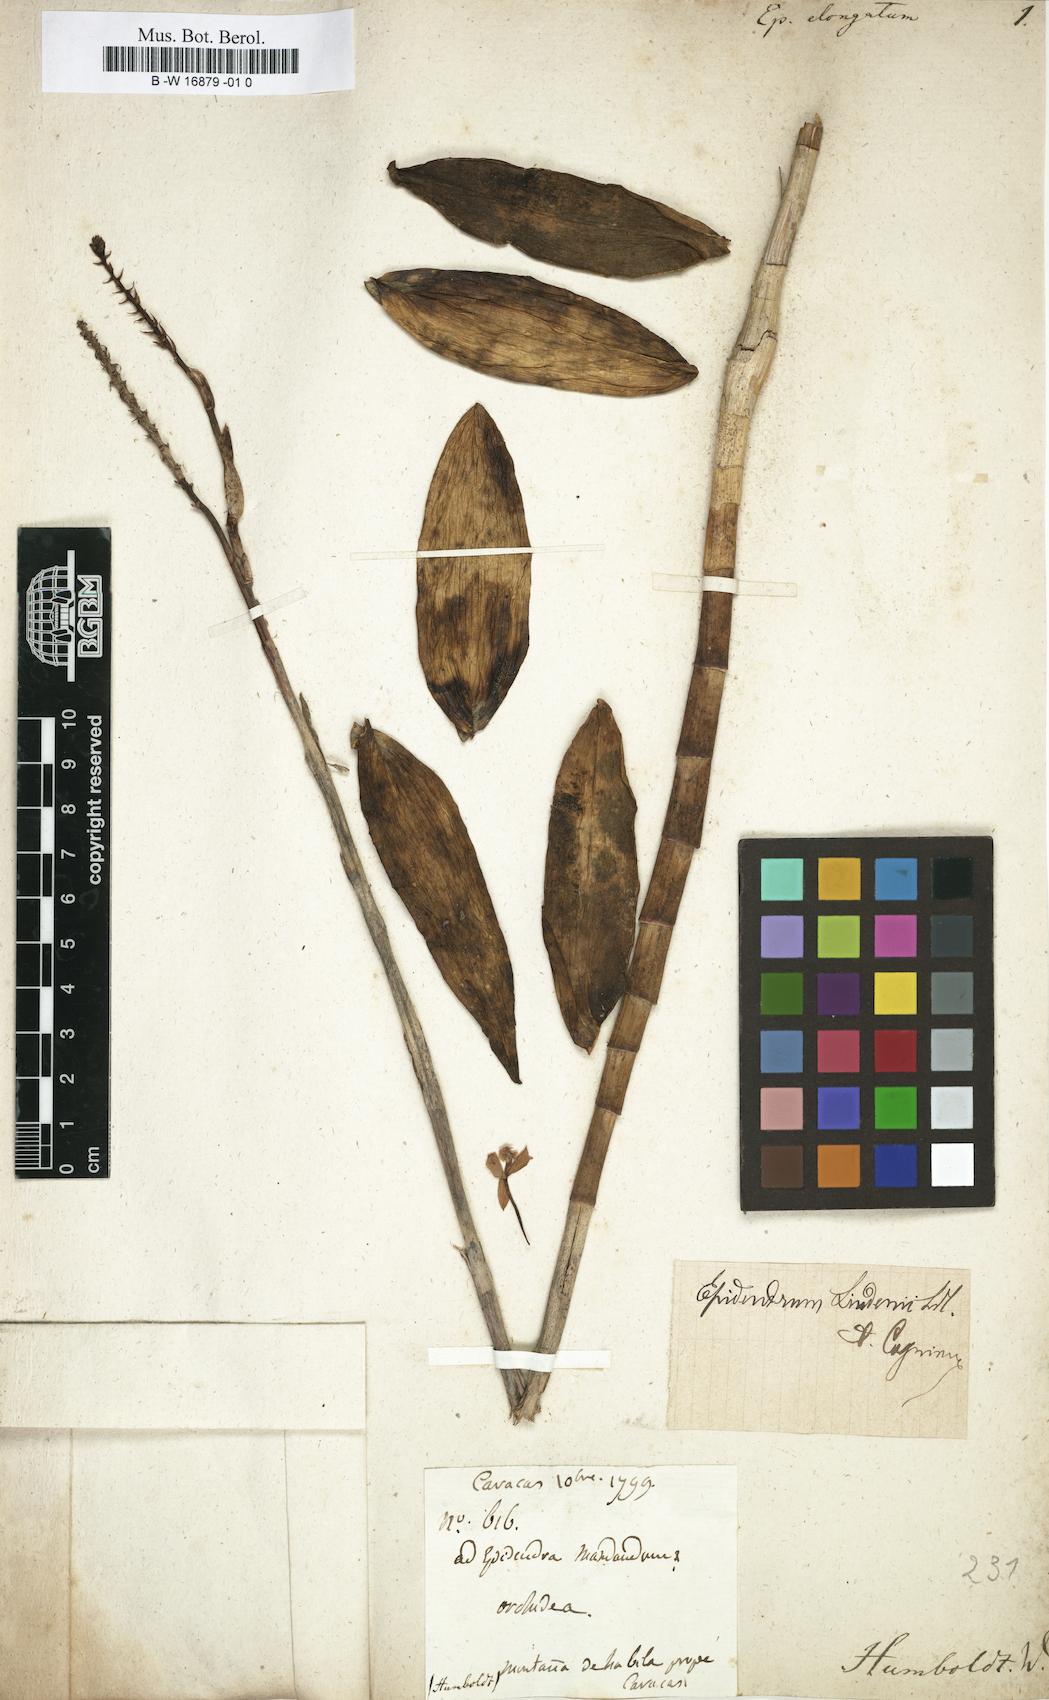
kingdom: Plantae
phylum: Tracheophyta
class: Liliopsida
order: Asparagales
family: Orchidaceae
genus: Epidendrum
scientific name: Epidendrum elongatum
